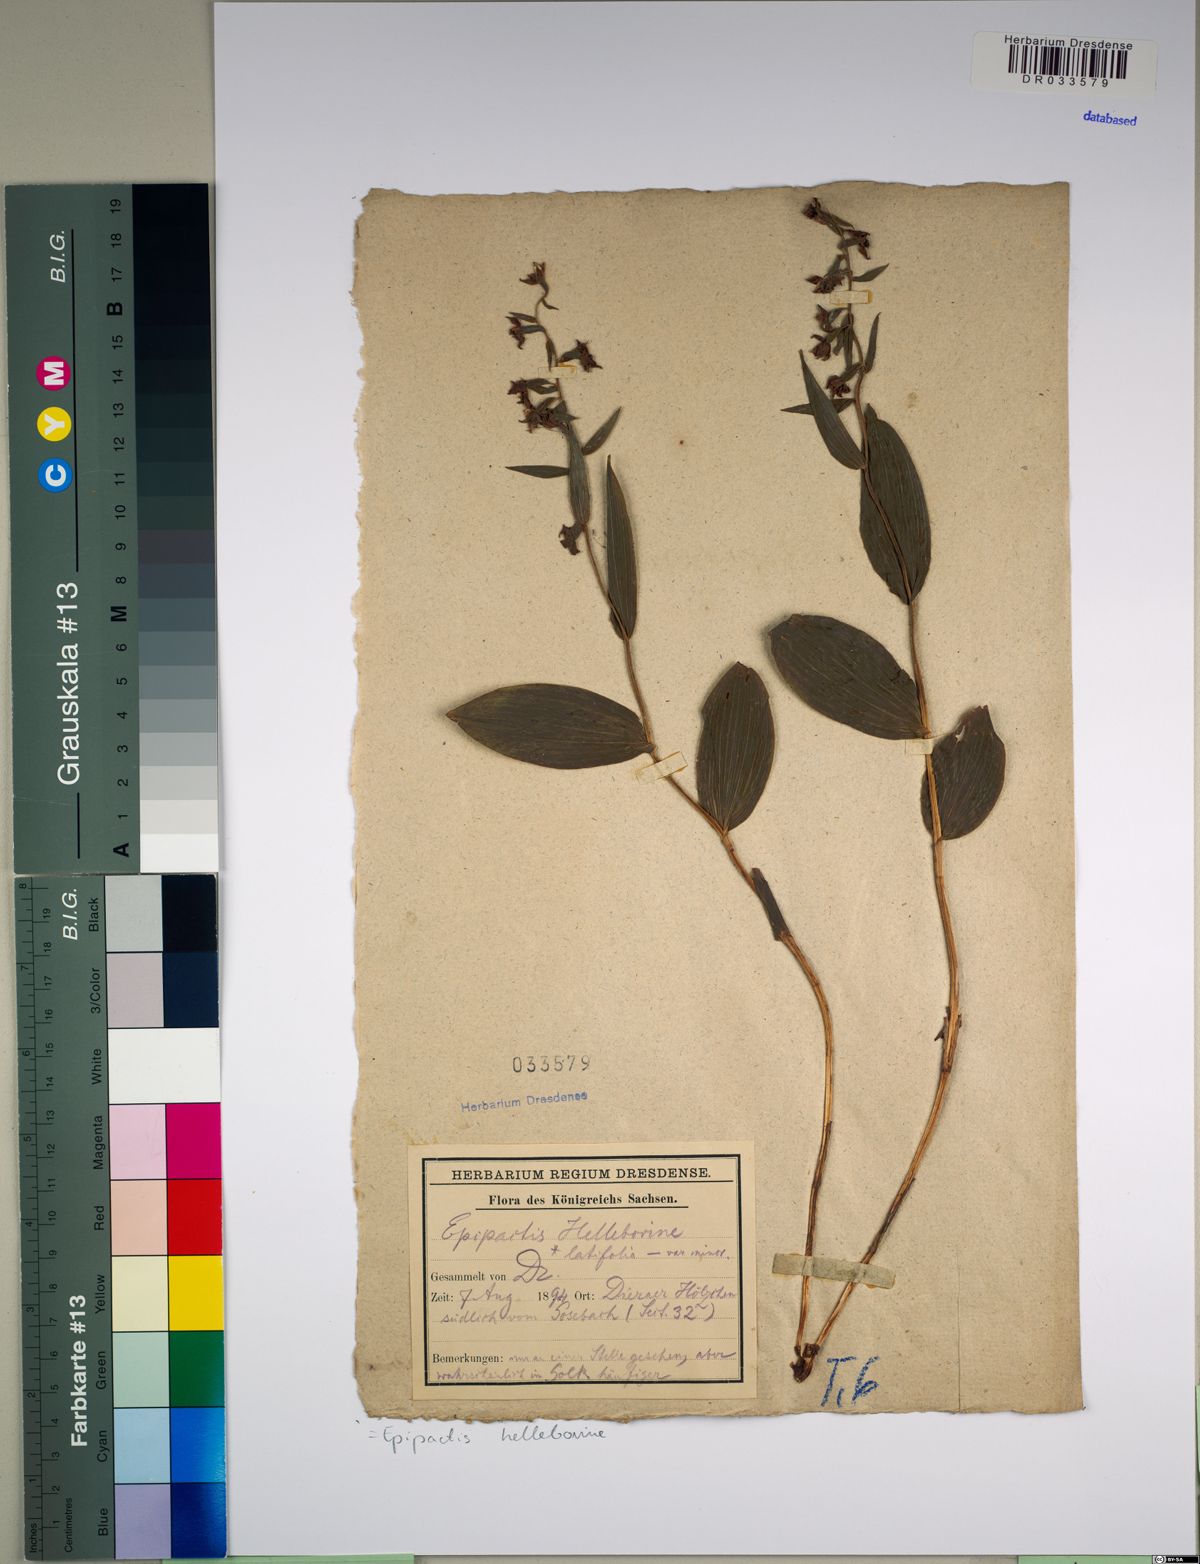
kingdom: Plantae
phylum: Tracheophyta
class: Liliopsida
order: Asparagales
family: Orchidaceae
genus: Epipactis
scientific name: Epipactis helleborine
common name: Broad-leaved helleborine
